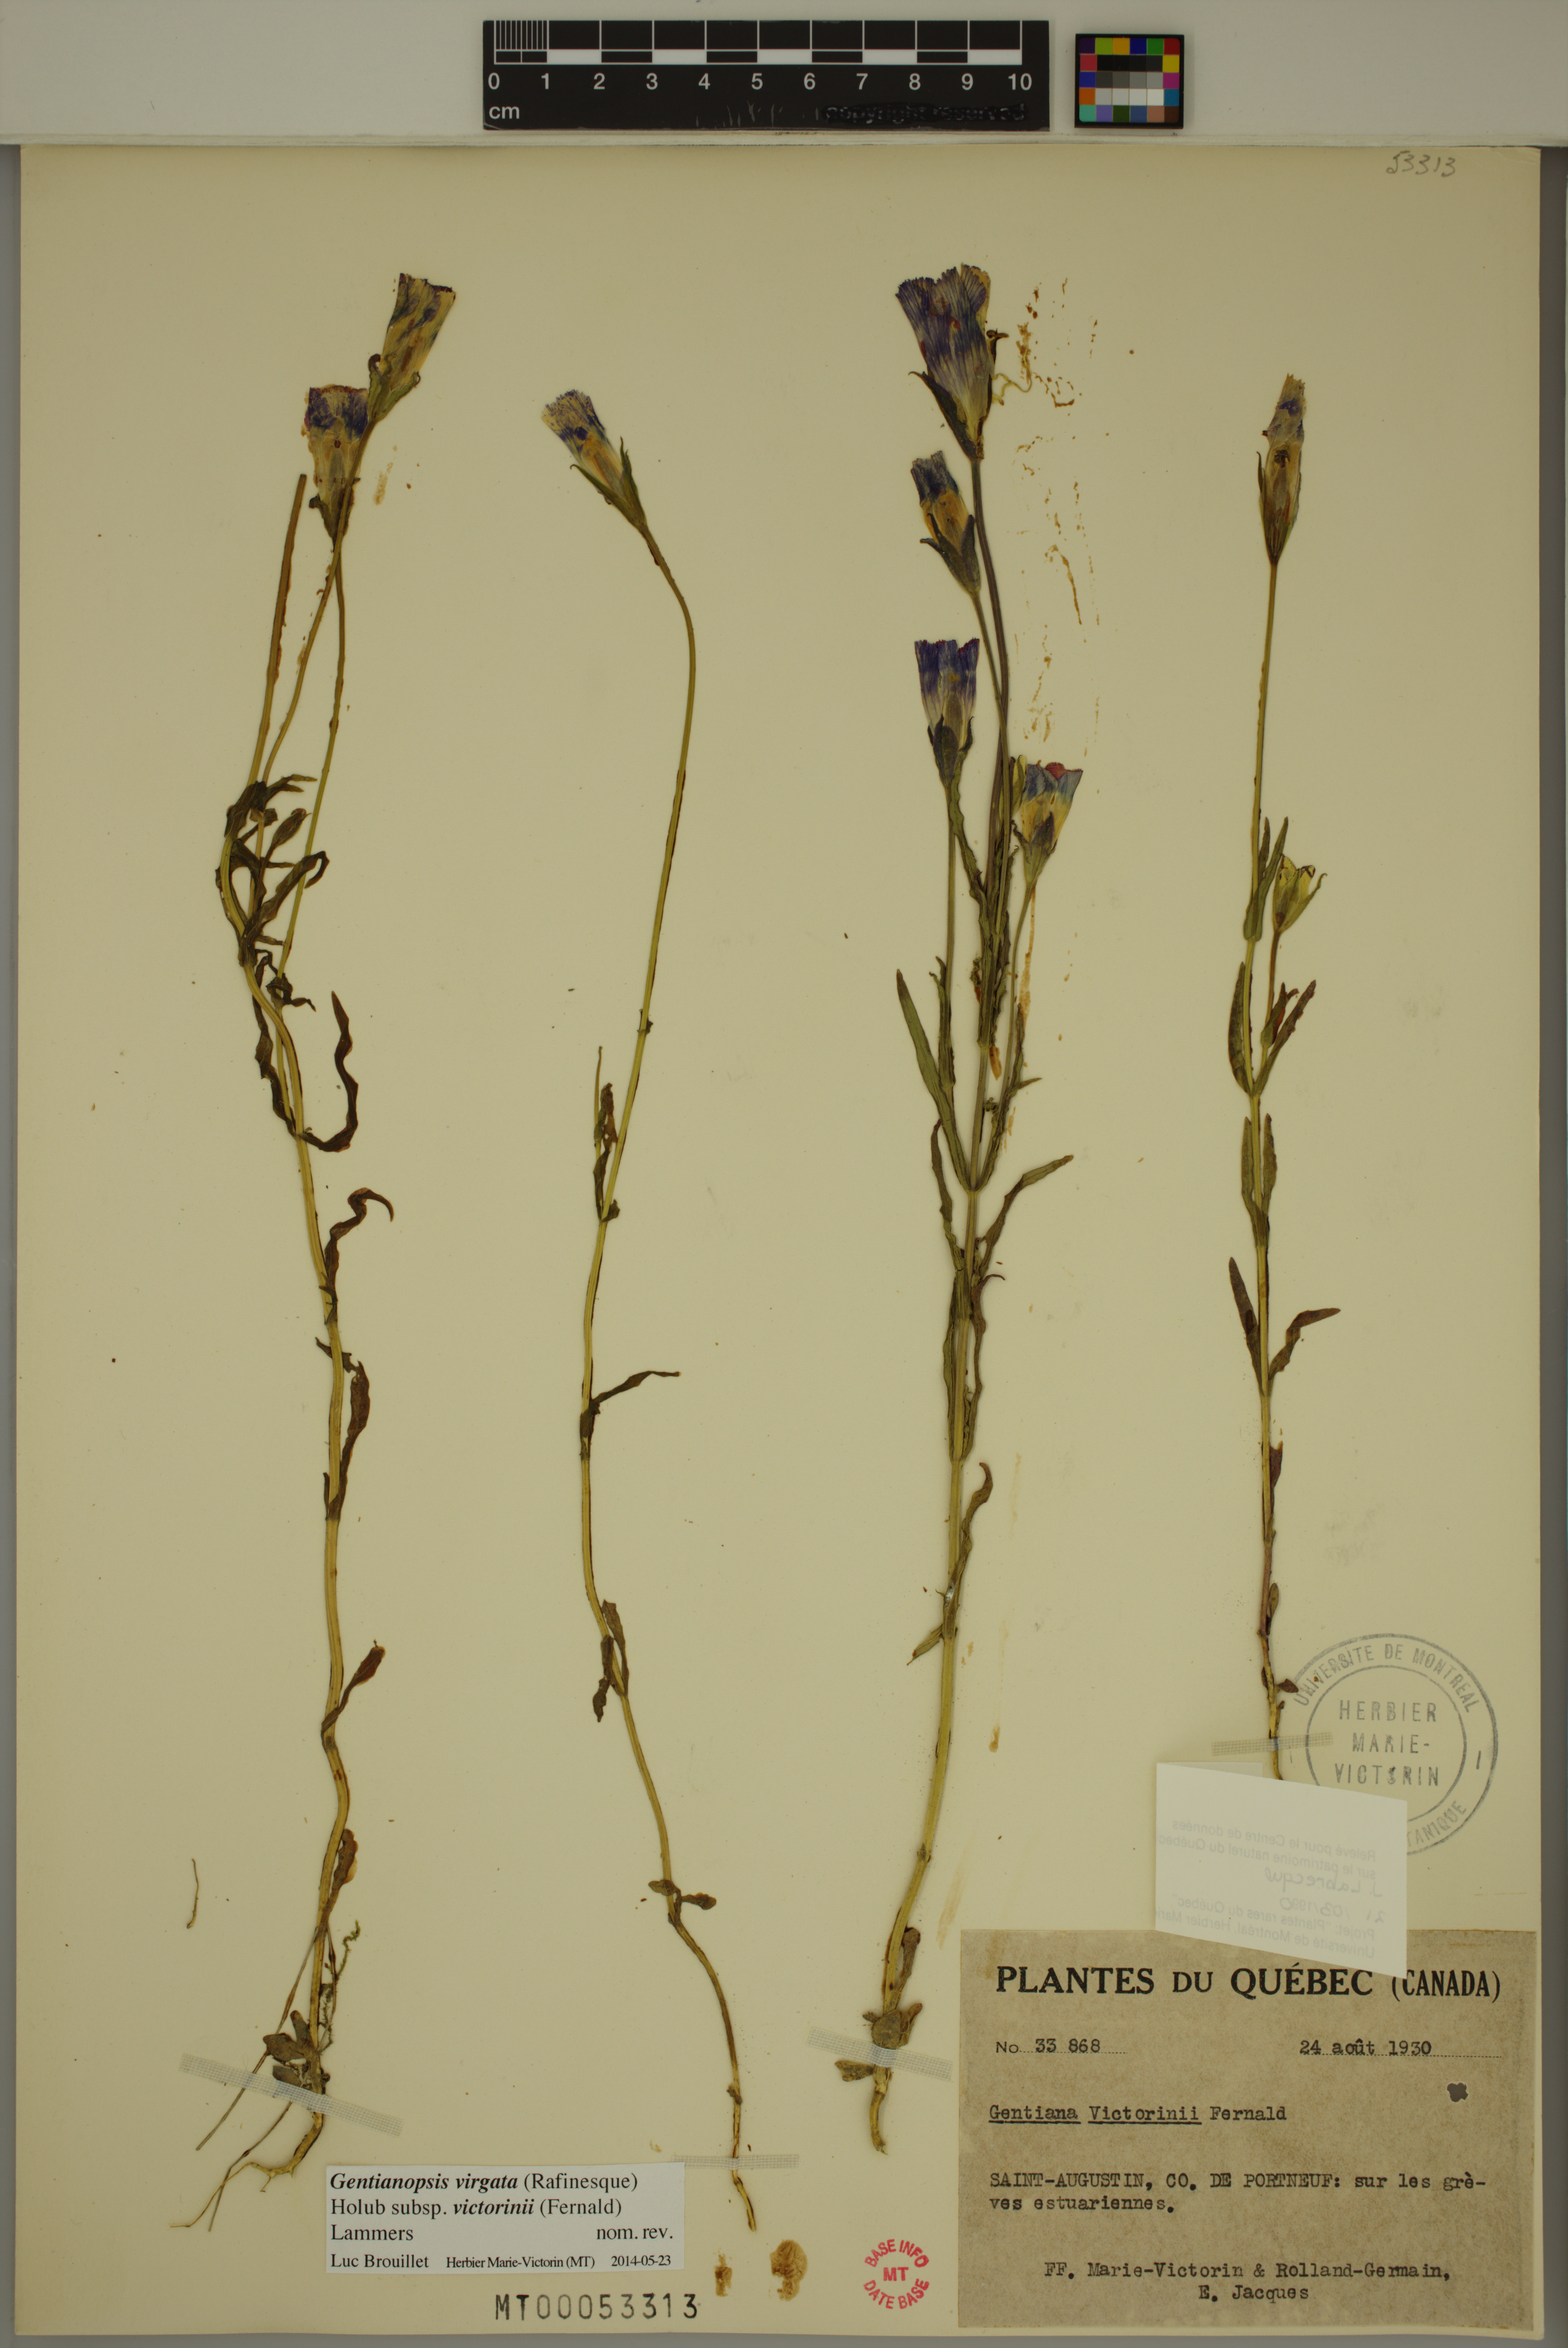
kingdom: Plantae
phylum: Tracheophyta
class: Magnoliopsida
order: Gentianales
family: Gentianaceae
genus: Gentianopsis
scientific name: Gentianopsis victorinii
